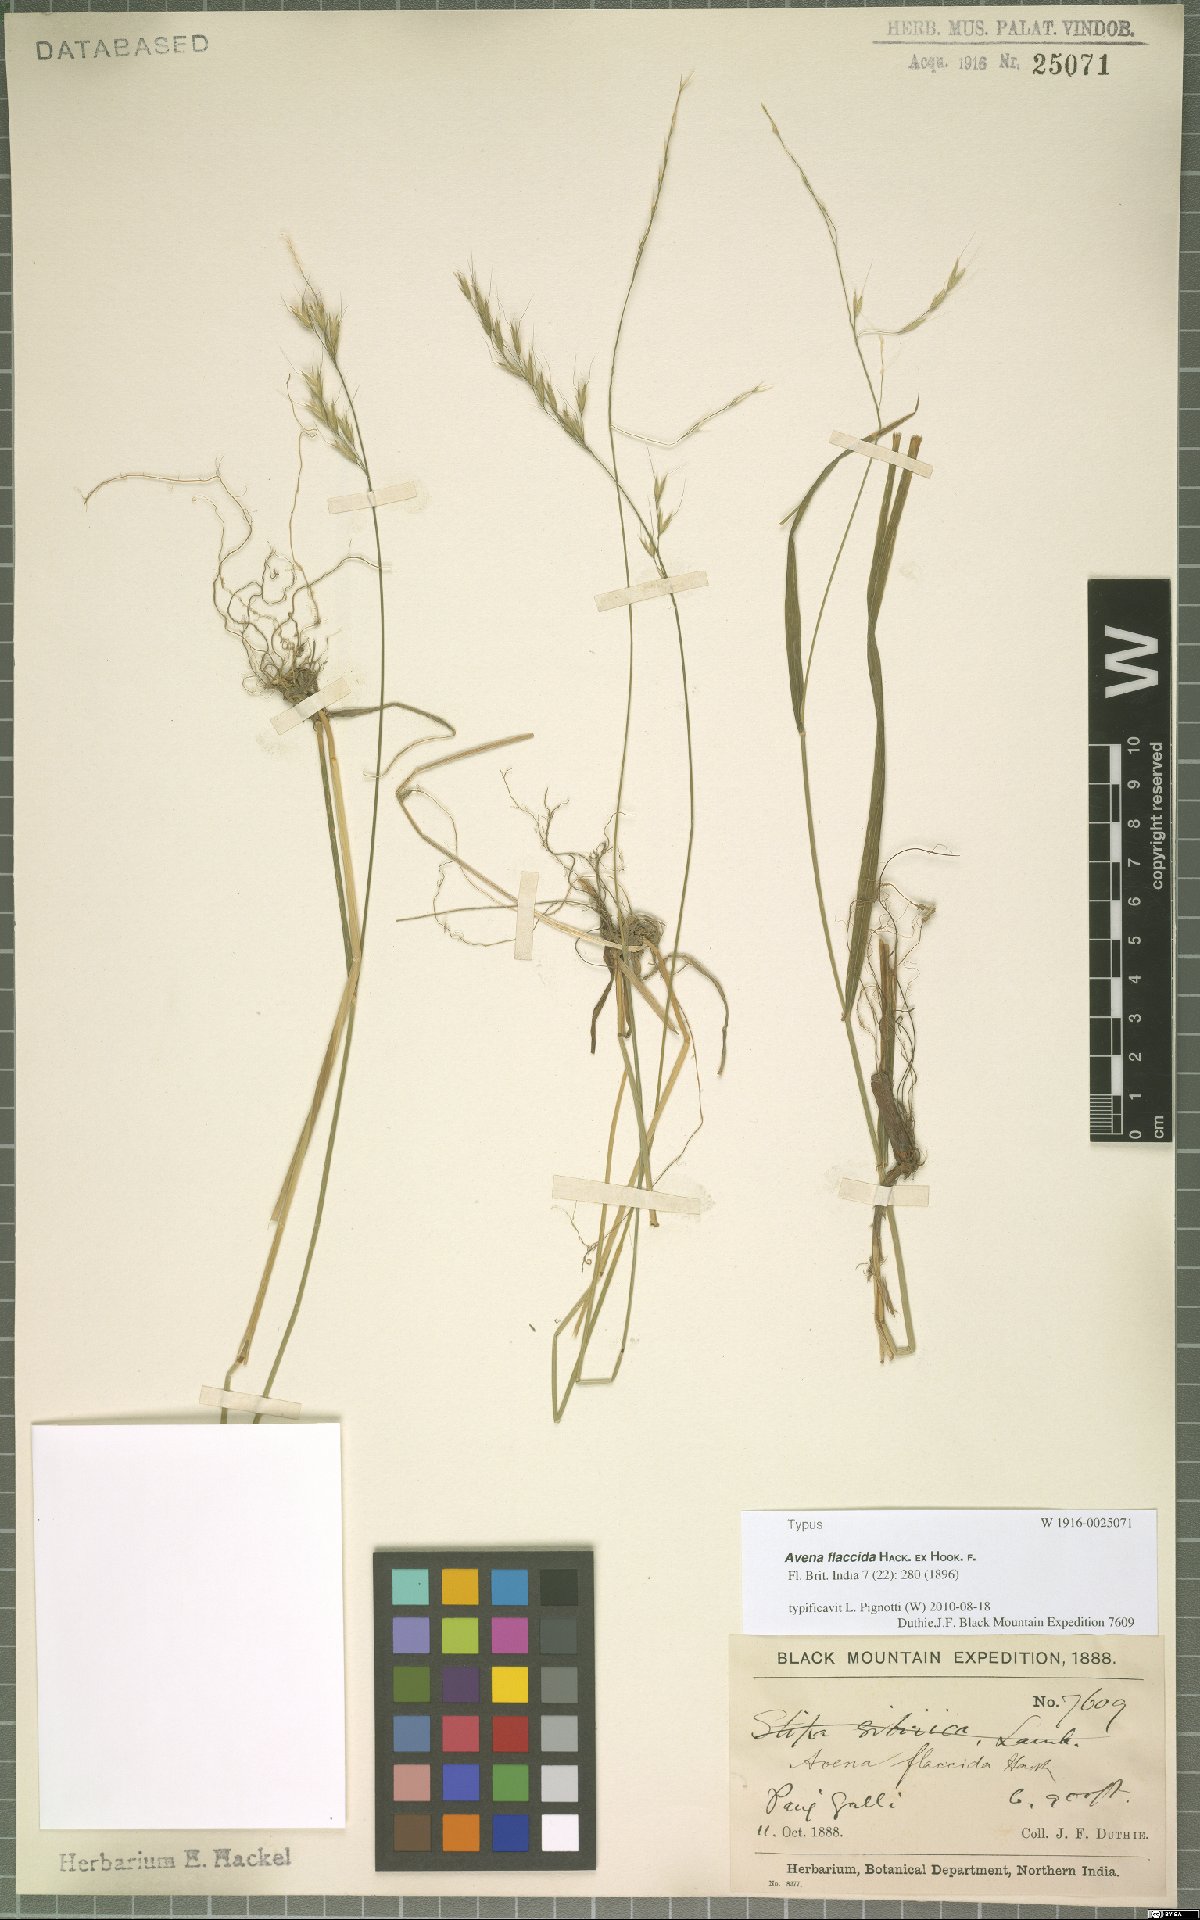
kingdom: Plantae
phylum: Tracheophyta
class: Liliopsida
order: Poales
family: Poaceae
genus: Lolium
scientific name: Lolium giganteum
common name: Giant fescue
